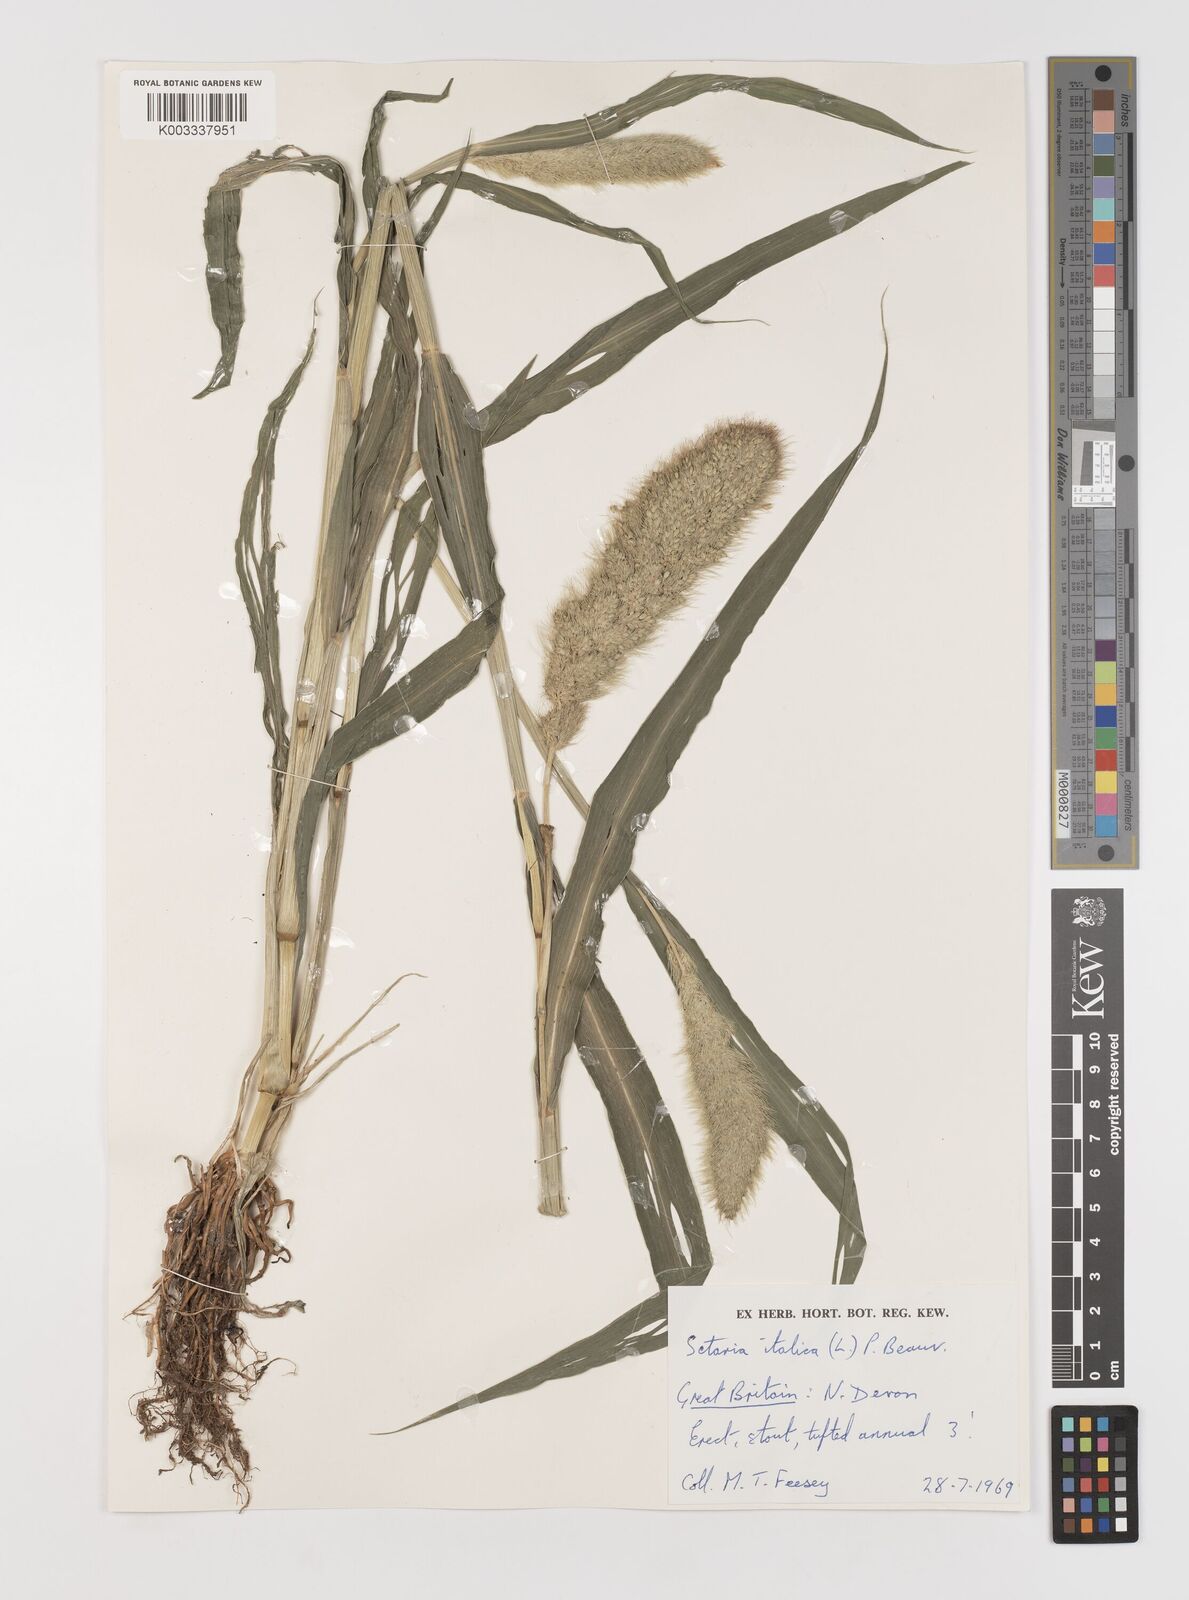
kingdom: Plantae
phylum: Tracheophyta
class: Liliopsida
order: Poales
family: Poaceae
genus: Setaria
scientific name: Setaria italica
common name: Foxtail bristle-grass
